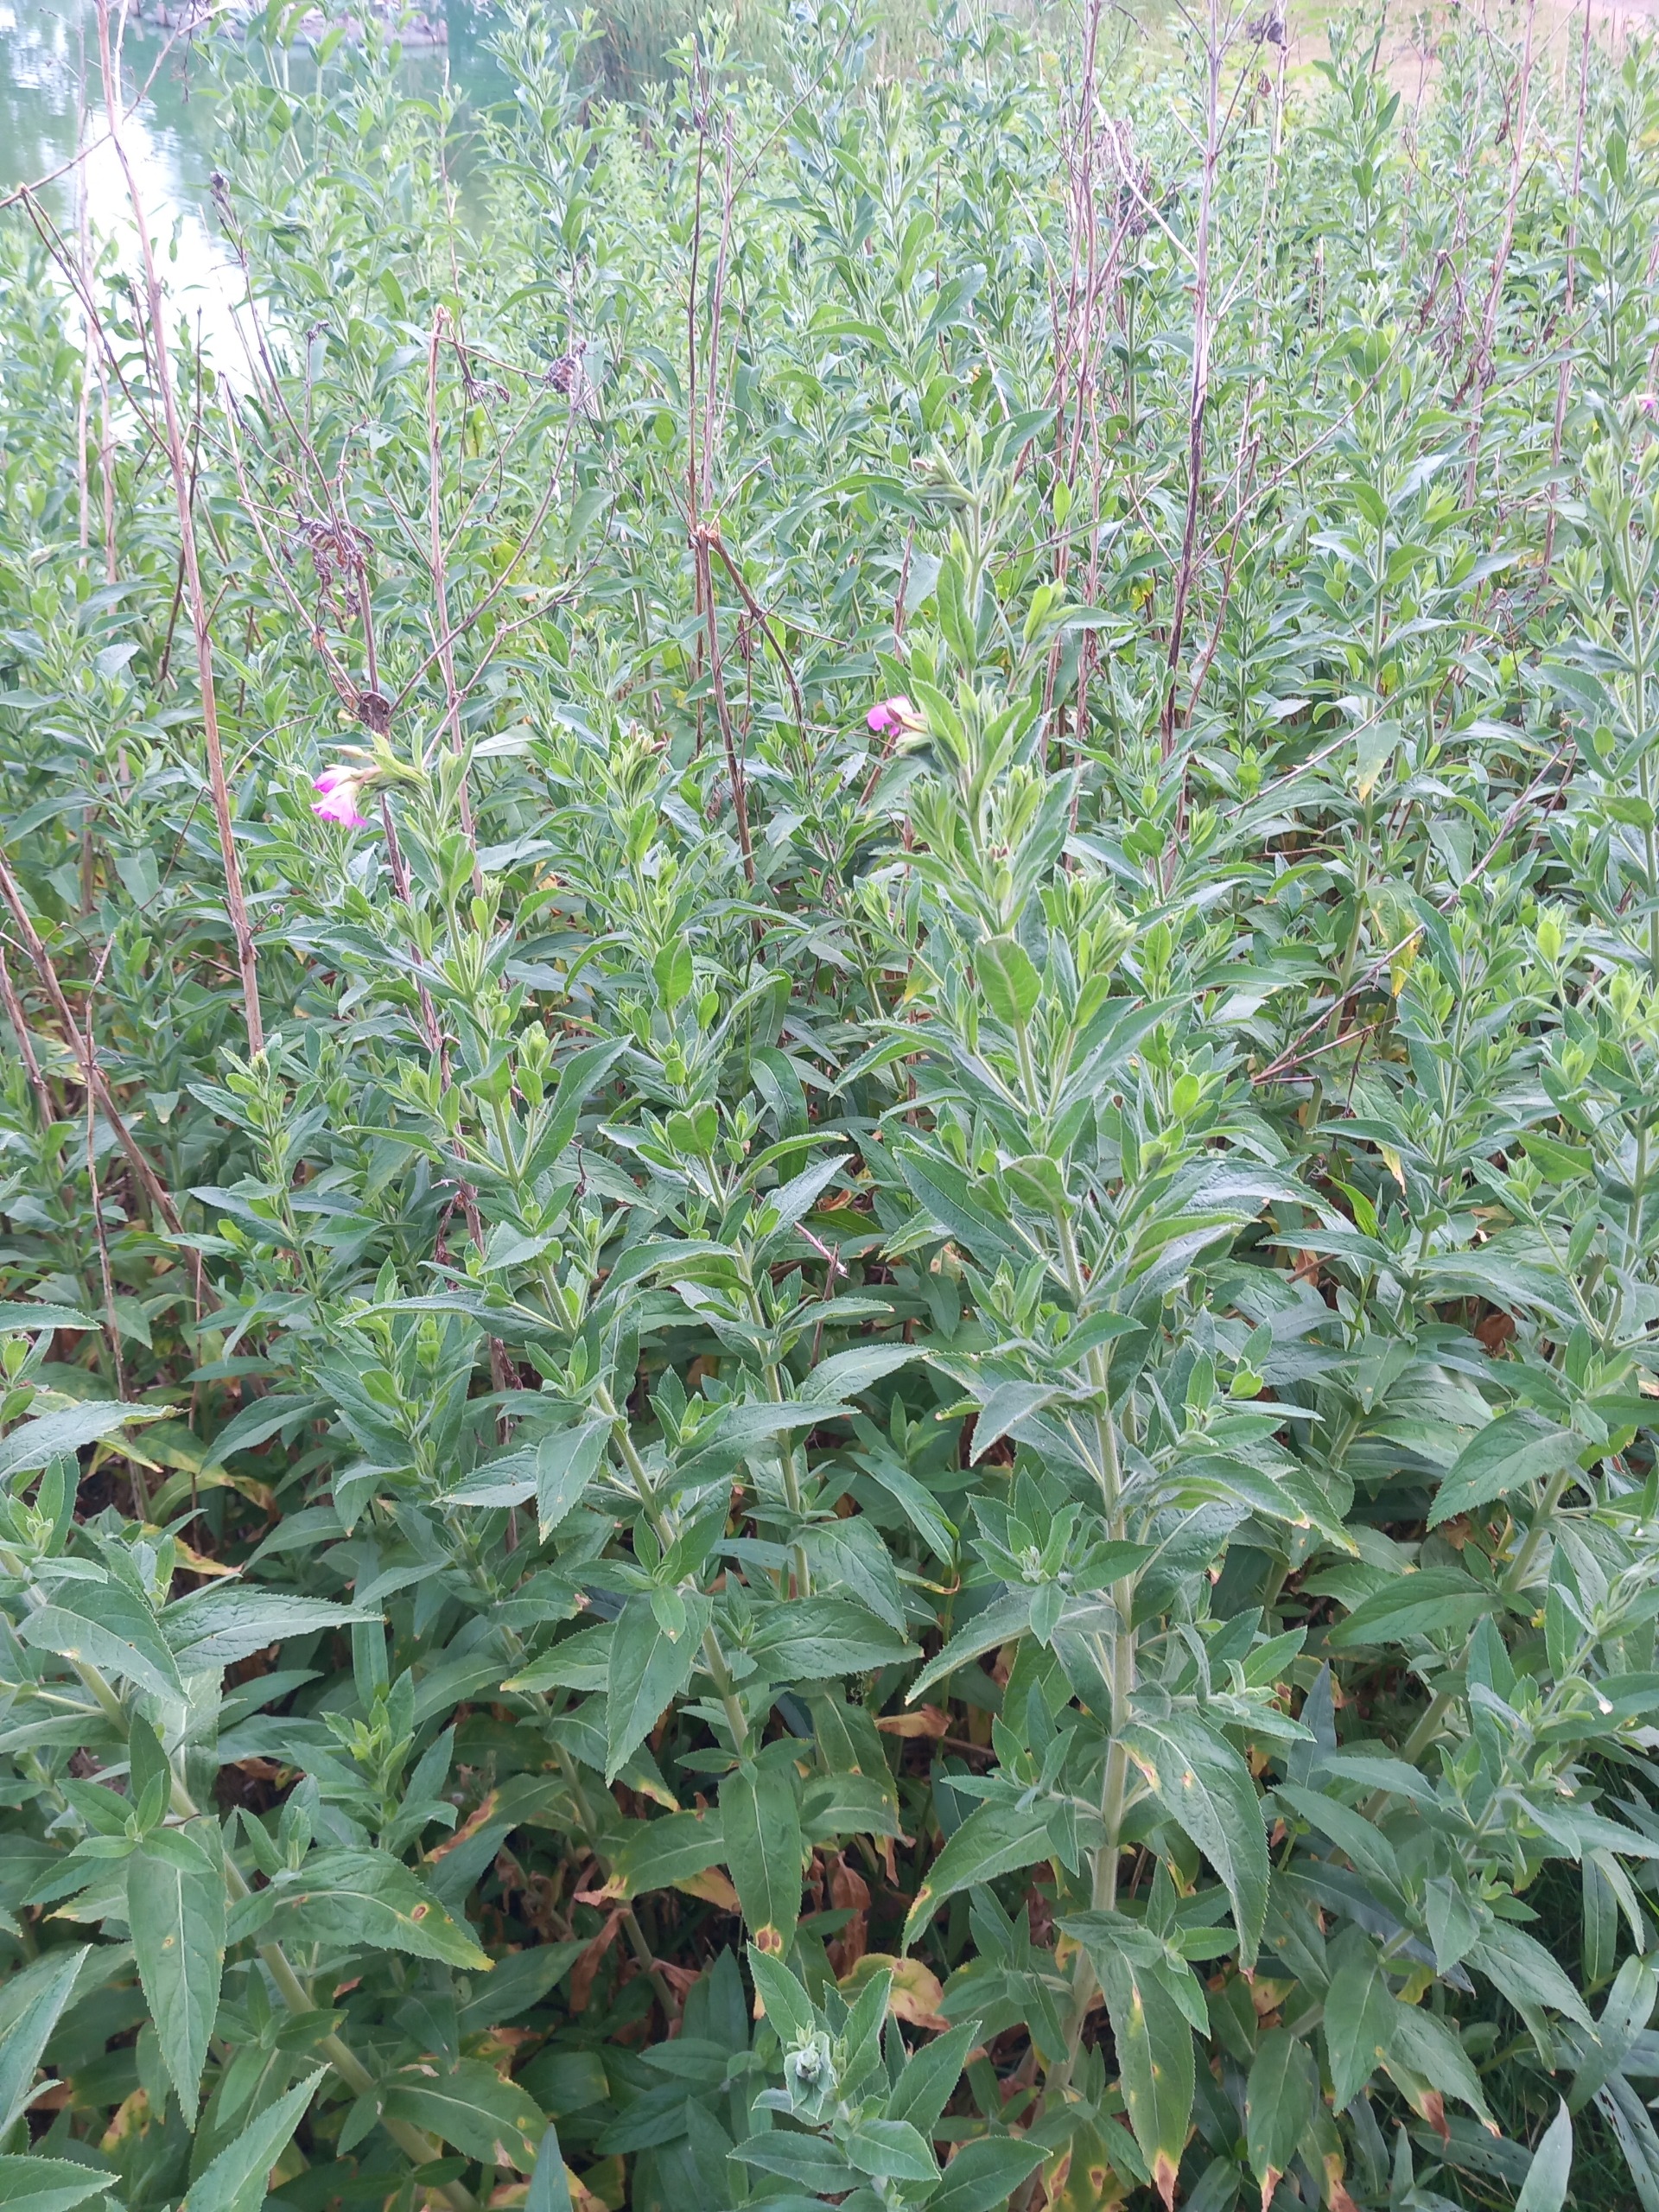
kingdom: Plantae
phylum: Tracheophyta
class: Magnoliopsida
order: Myrtales
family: Onagraceae
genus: Epilobium
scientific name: Epilobium hirsutum
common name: Lådden dueurt
